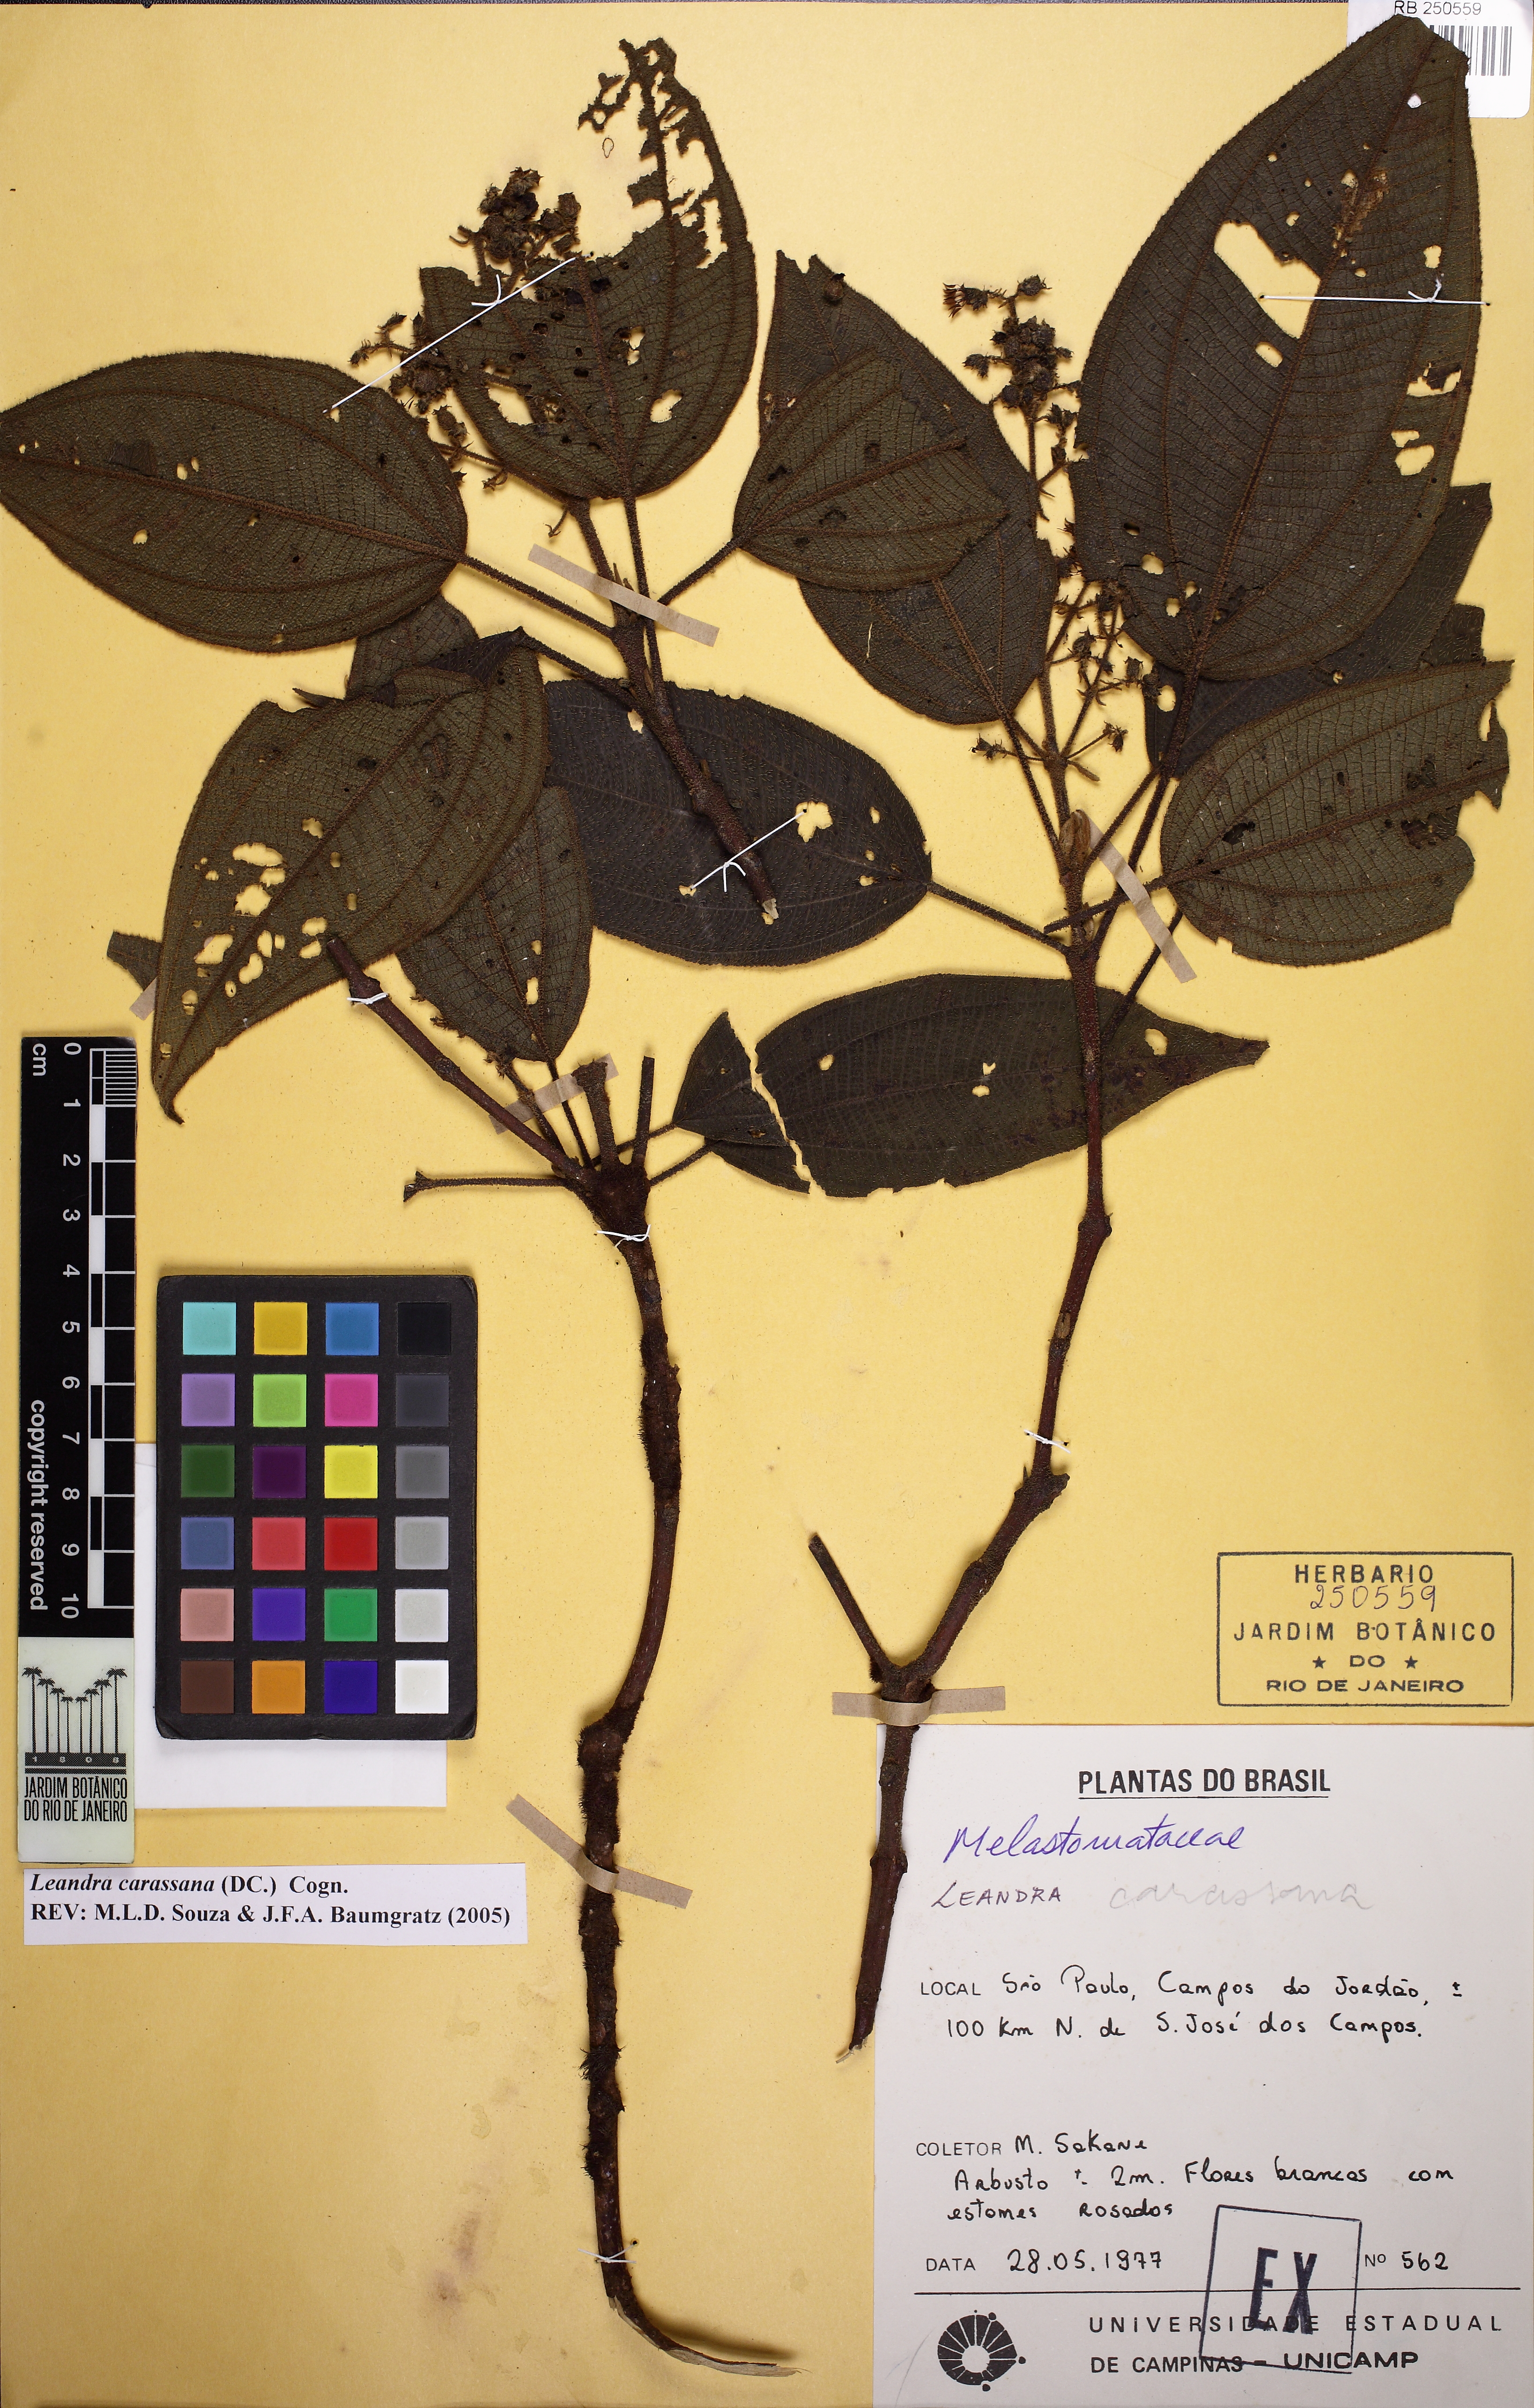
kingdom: Plantae
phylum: Tracheophyta
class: Magnoliopsida
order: Myrtales
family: Melastomataceae
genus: Miconia
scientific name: Miconia sublanata
